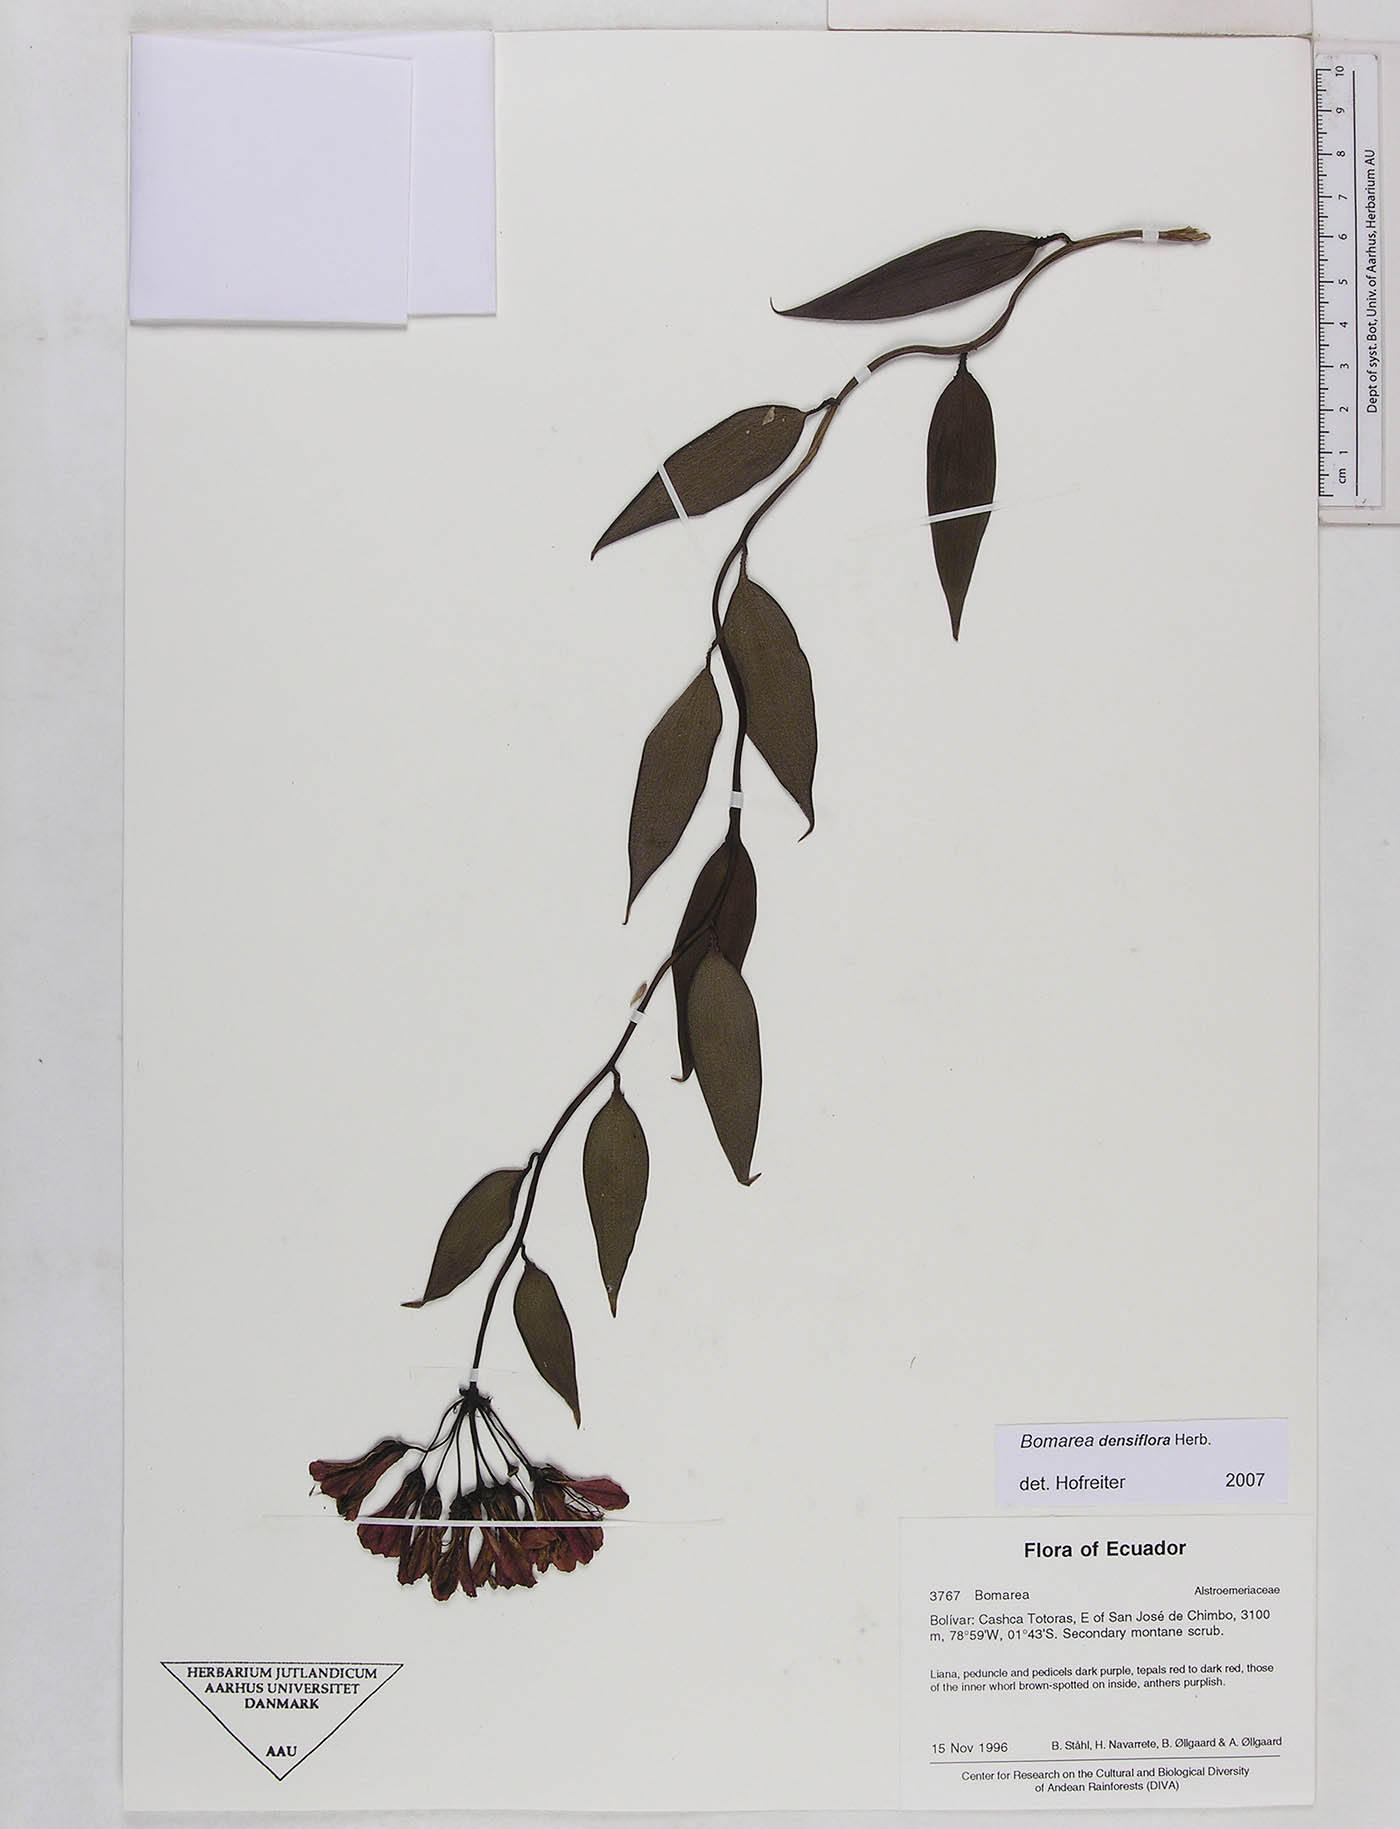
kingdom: Plantae
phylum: Tracheophyta
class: Liliopsida
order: Liliales
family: Alstroemeriaceae
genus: Bomarea
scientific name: Bomarea densiflora
